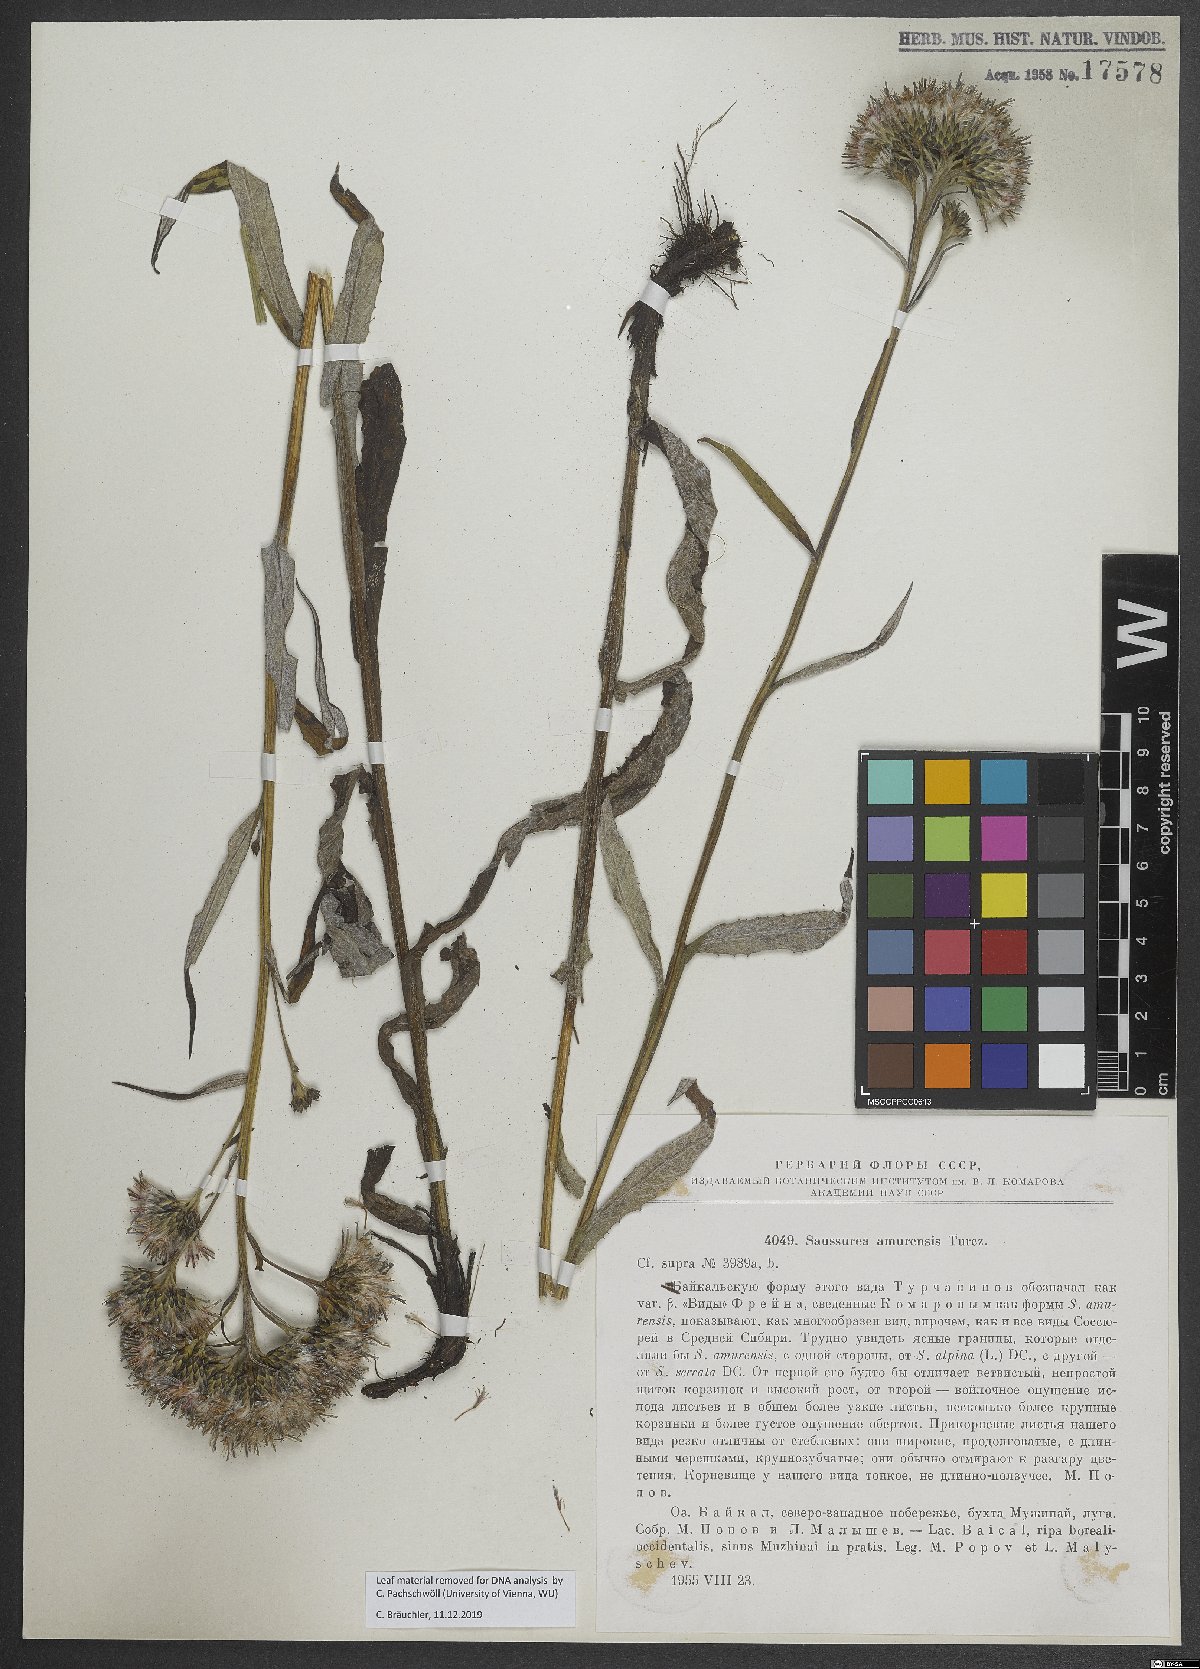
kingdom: Plantae
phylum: Tracheophyta
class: Magnoliopsida
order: Asterales
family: Asteraceae
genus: Saussurea
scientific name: Saussurea amurensis
